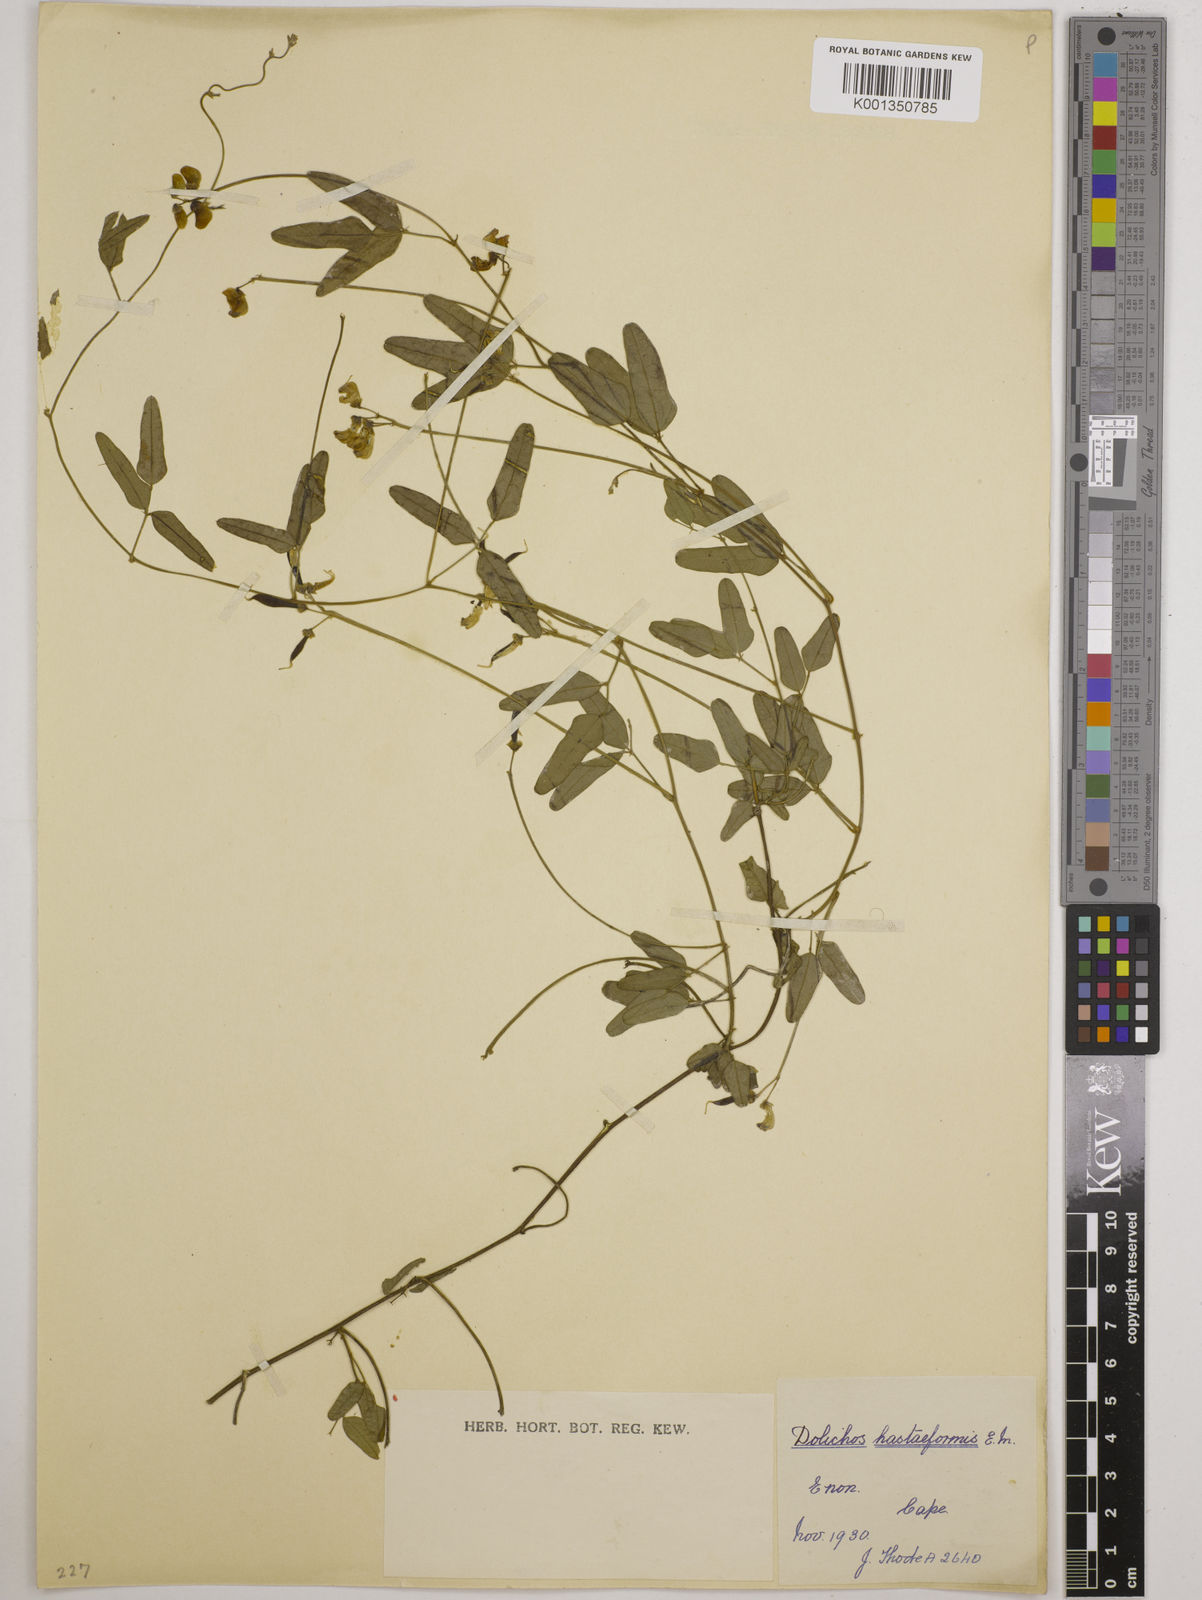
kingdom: Plantae
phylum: Tracheophyta
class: Magnoliopsida
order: Fabales
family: Fabaceae
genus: Dolichos
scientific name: Dolichos
